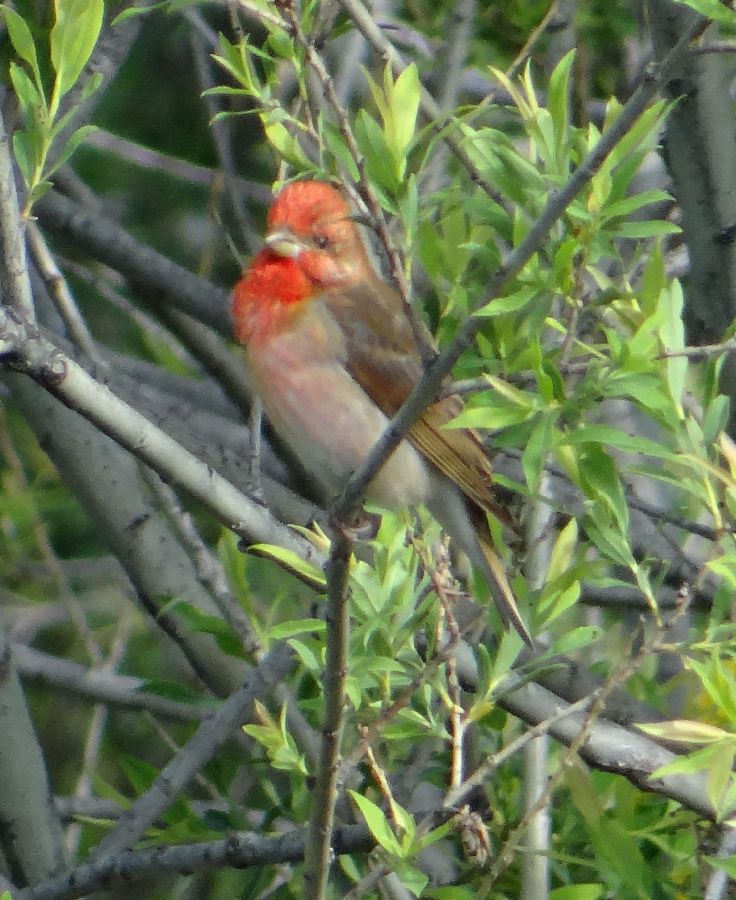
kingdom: Animalia
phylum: Chordata
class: Aves
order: Passeriformes
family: Fringillidae
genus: Carpodacus
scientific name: Carpodacus erythrinus
